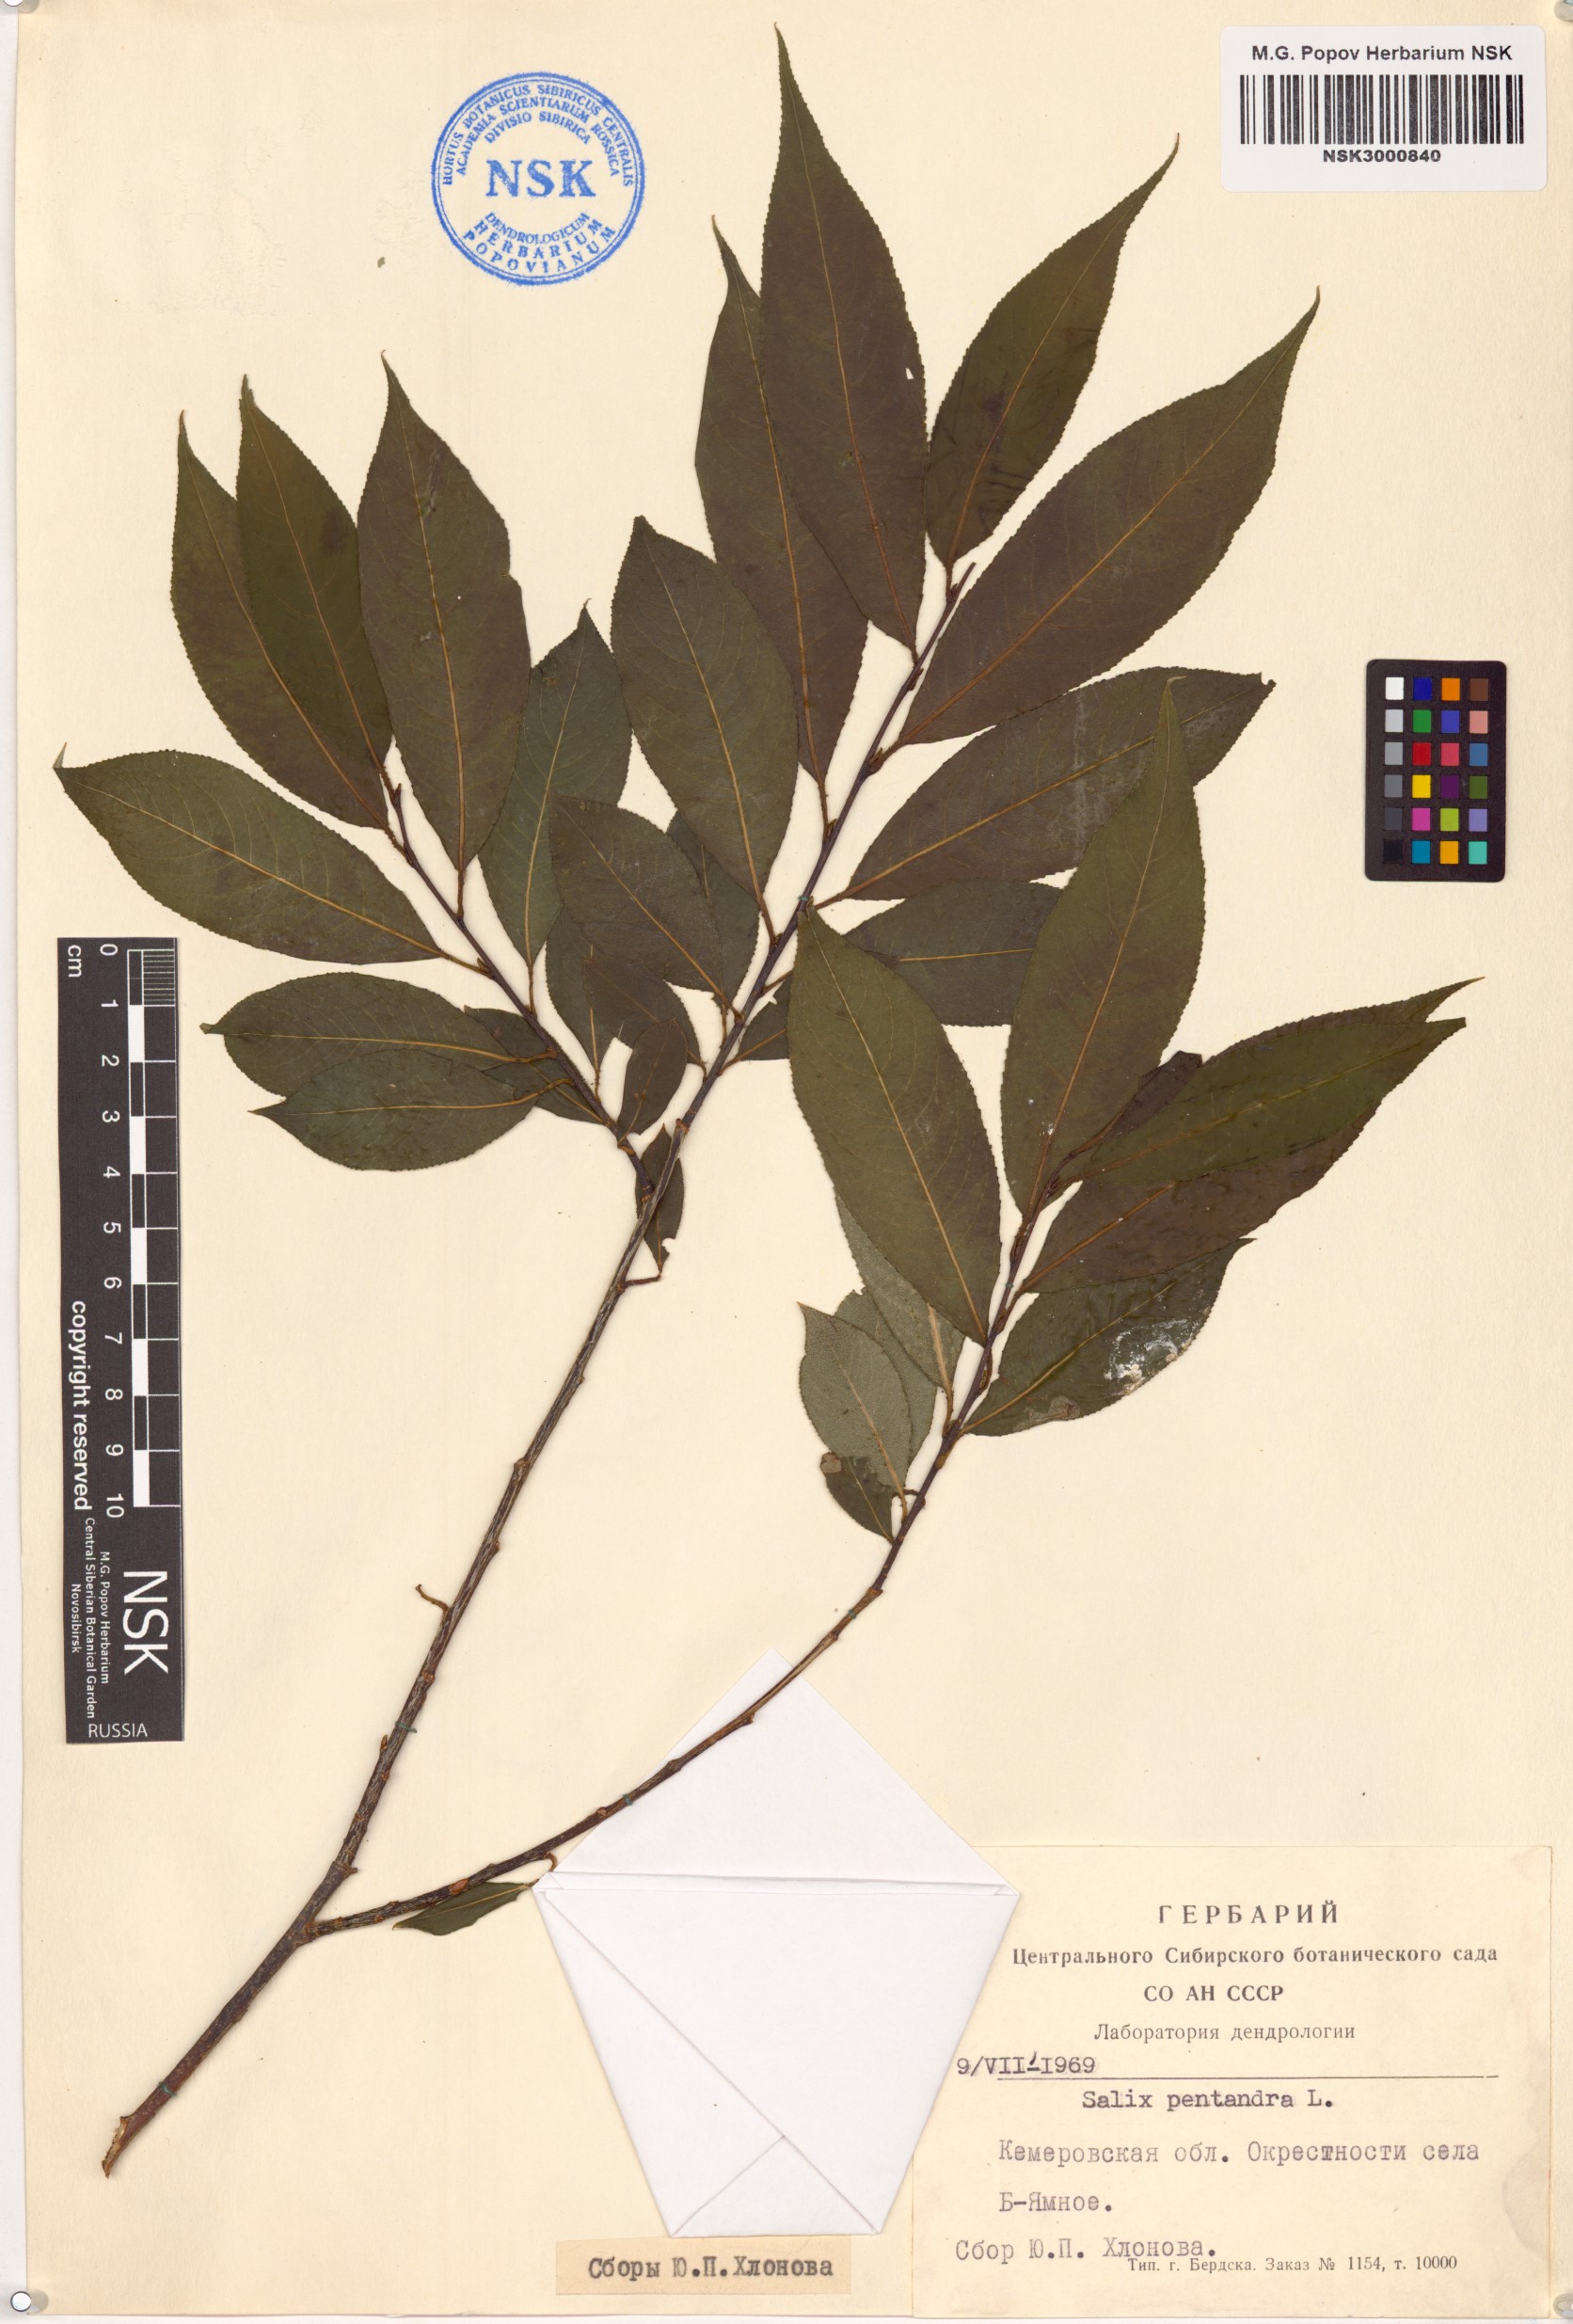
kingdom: Plantae
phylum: Tracheophyta
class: Magnoliopsida
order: Malpighiales
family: Salicaceae
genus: Salix
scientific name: Salix pentandra
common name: Bay willow
